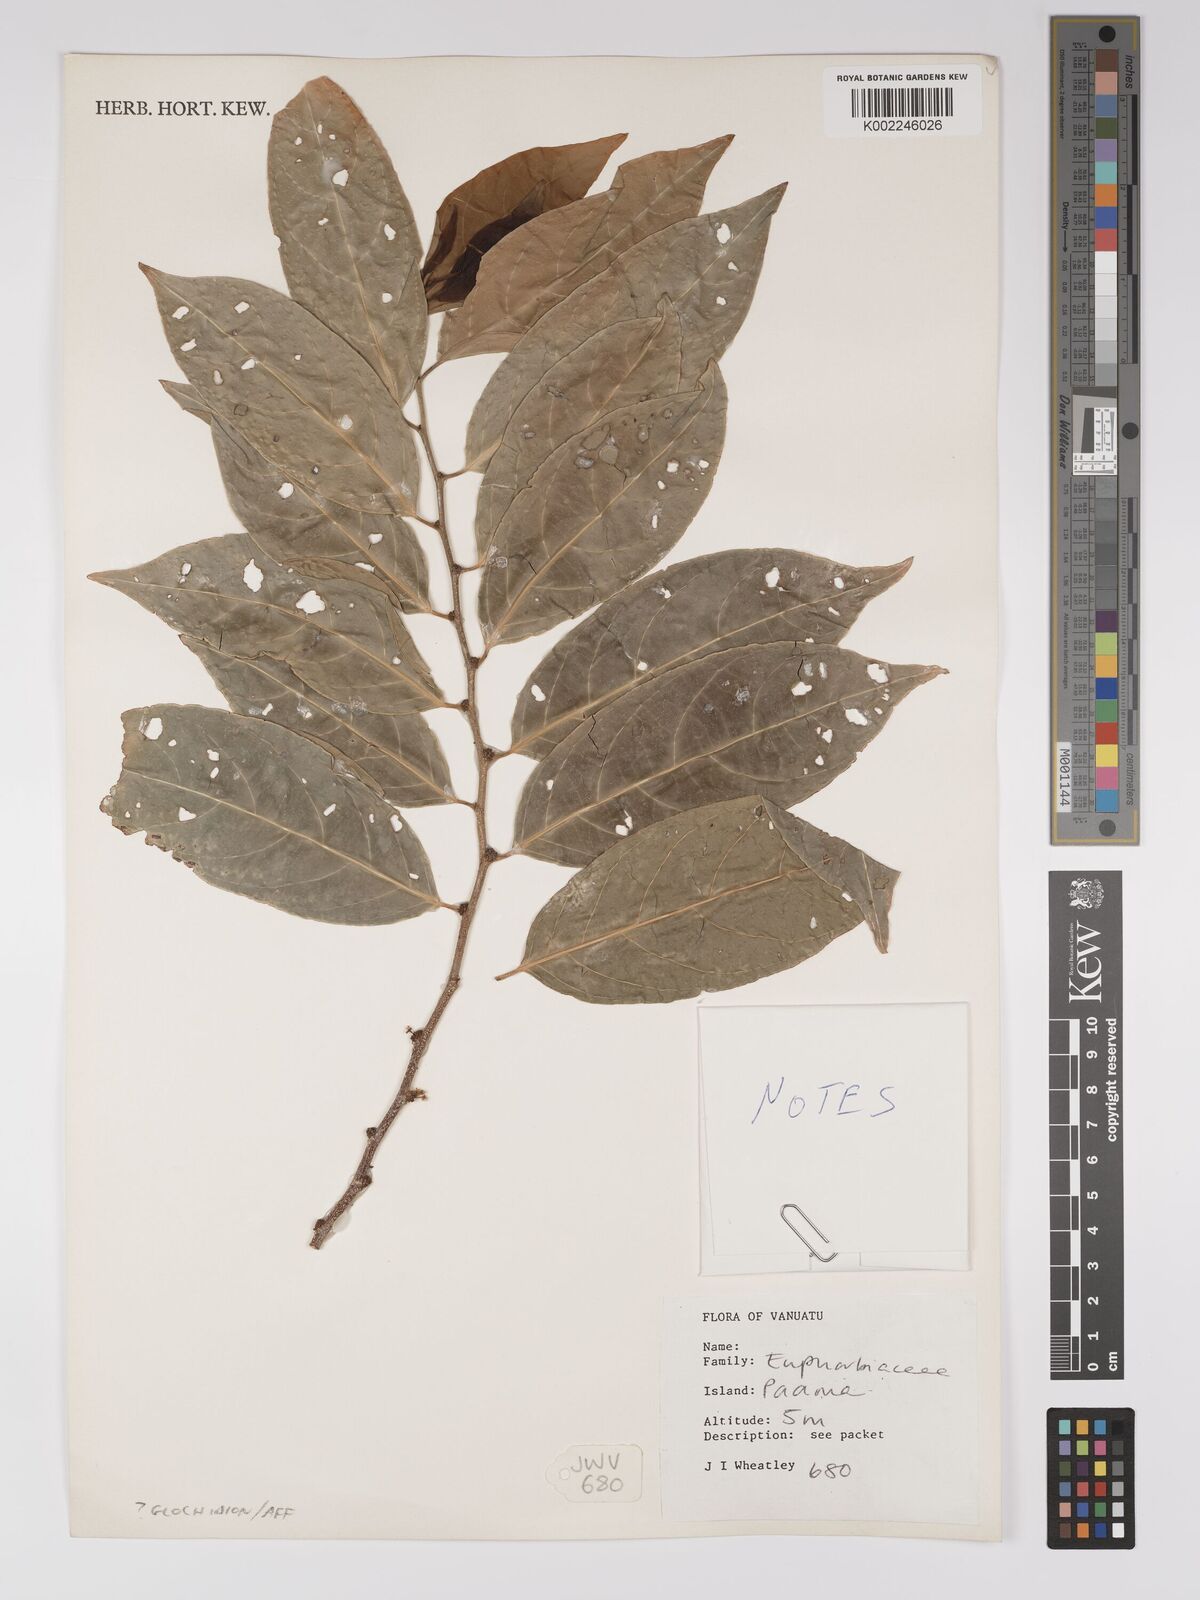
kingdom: Plantae
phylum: Tracheophyta
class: Magnoliopsida
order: Malpighiales
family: Euphorbiaceae
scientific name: Euphorbiaceae
